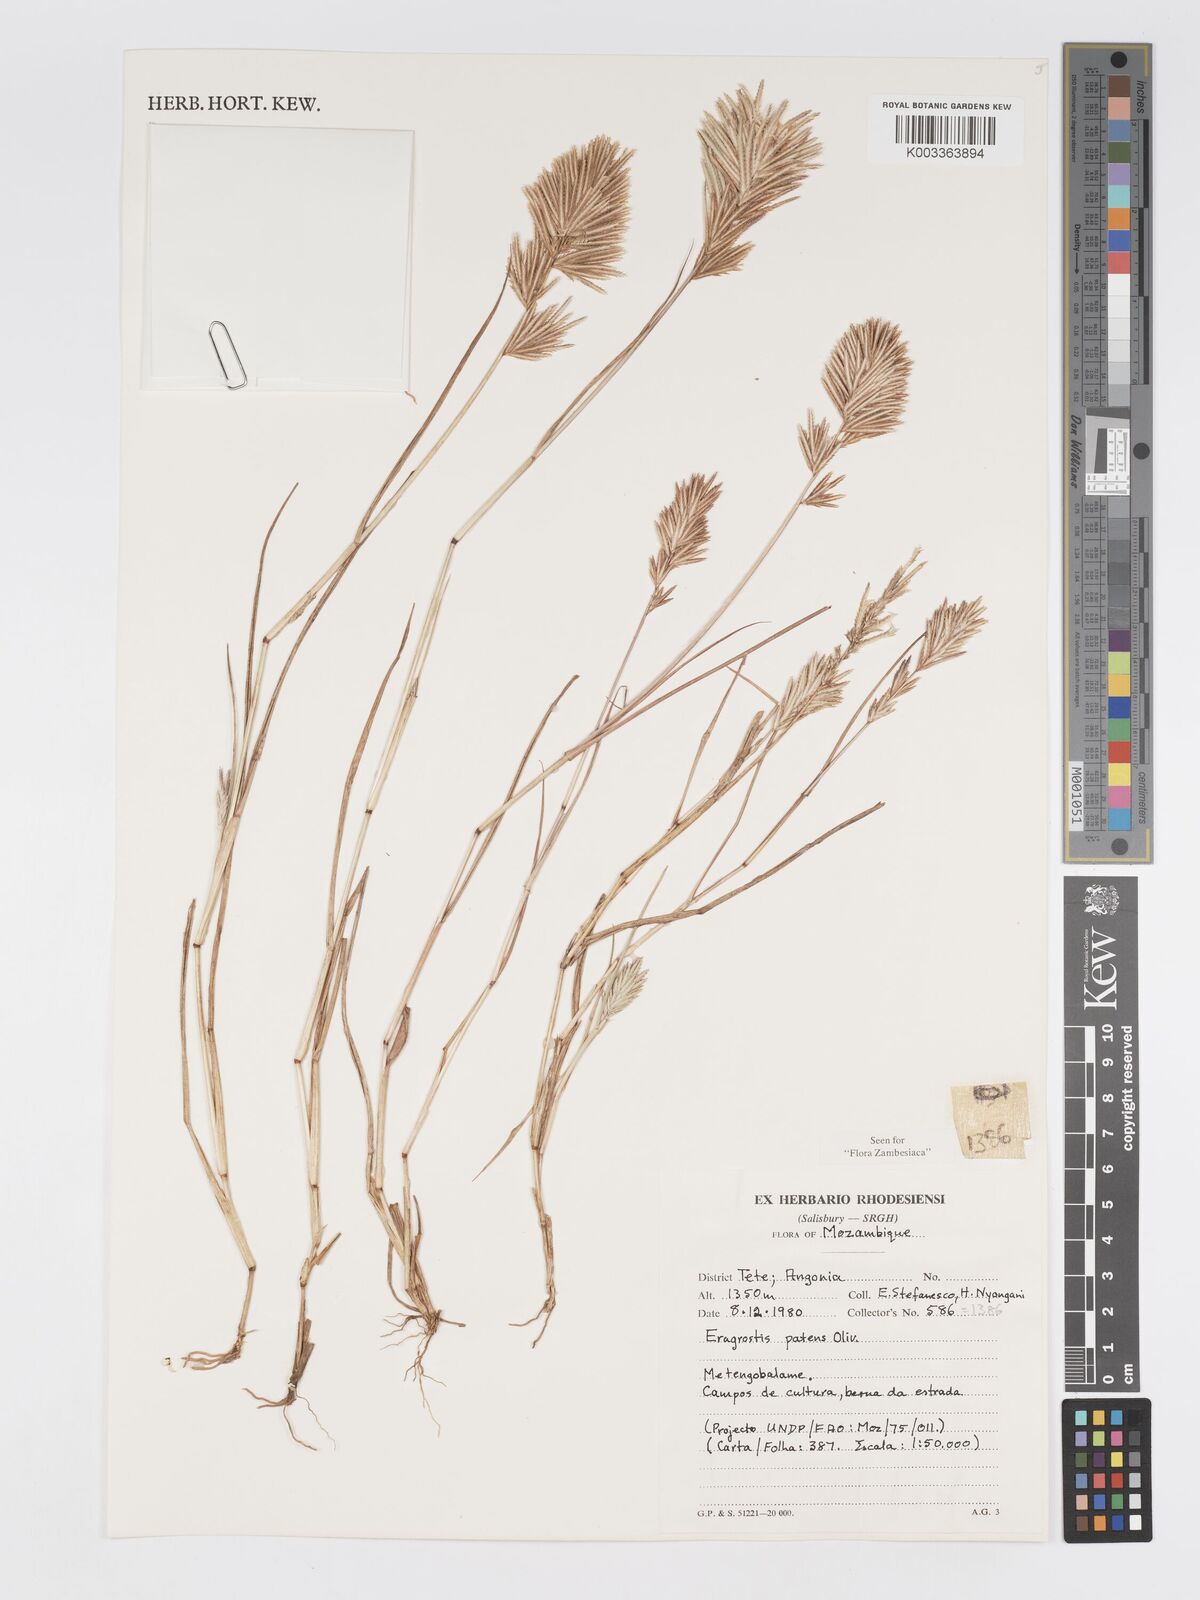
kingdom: Plantae
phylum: Tracheophyta
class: Liliopsida
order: Poales
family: Poaceae
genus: Eragrostis
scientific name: Eragrostis patens
